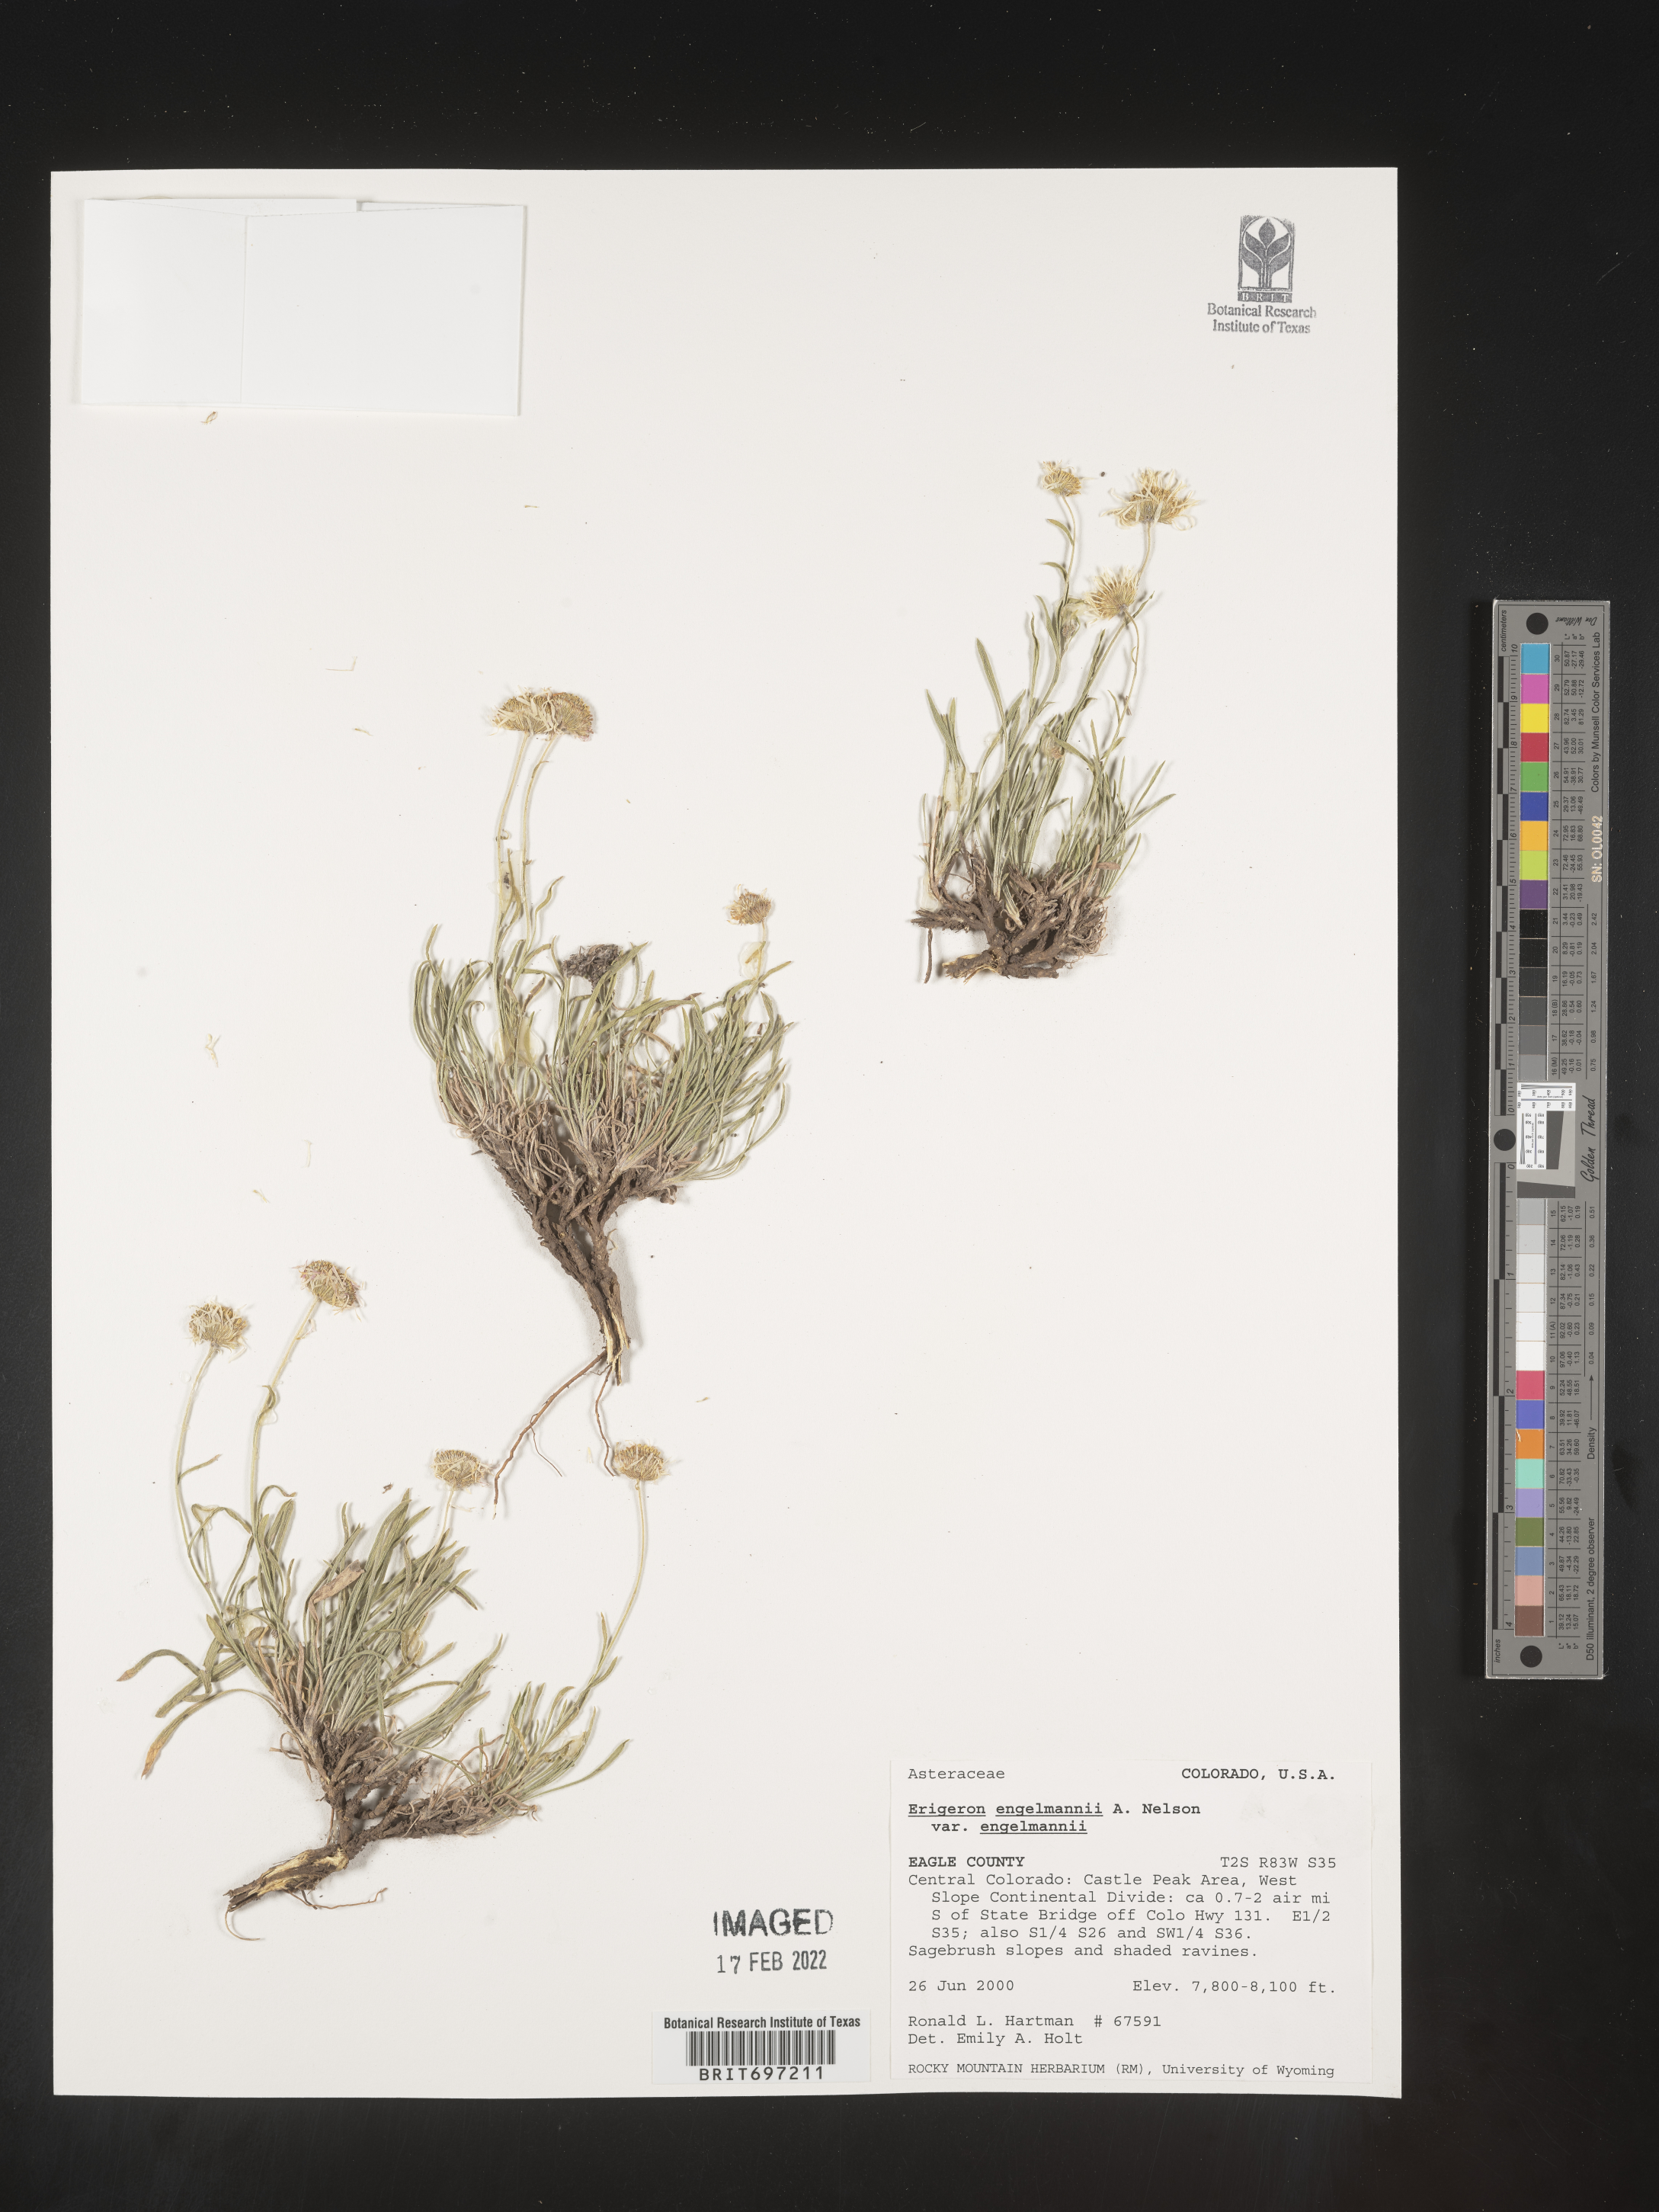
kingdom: Plantae
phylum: Tracheophyta
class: Magnoliopsida
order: Asterales
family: Asteraceae
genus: Erigeron
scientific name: Erigeron engelmannii
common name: Engelmann's fleabane
